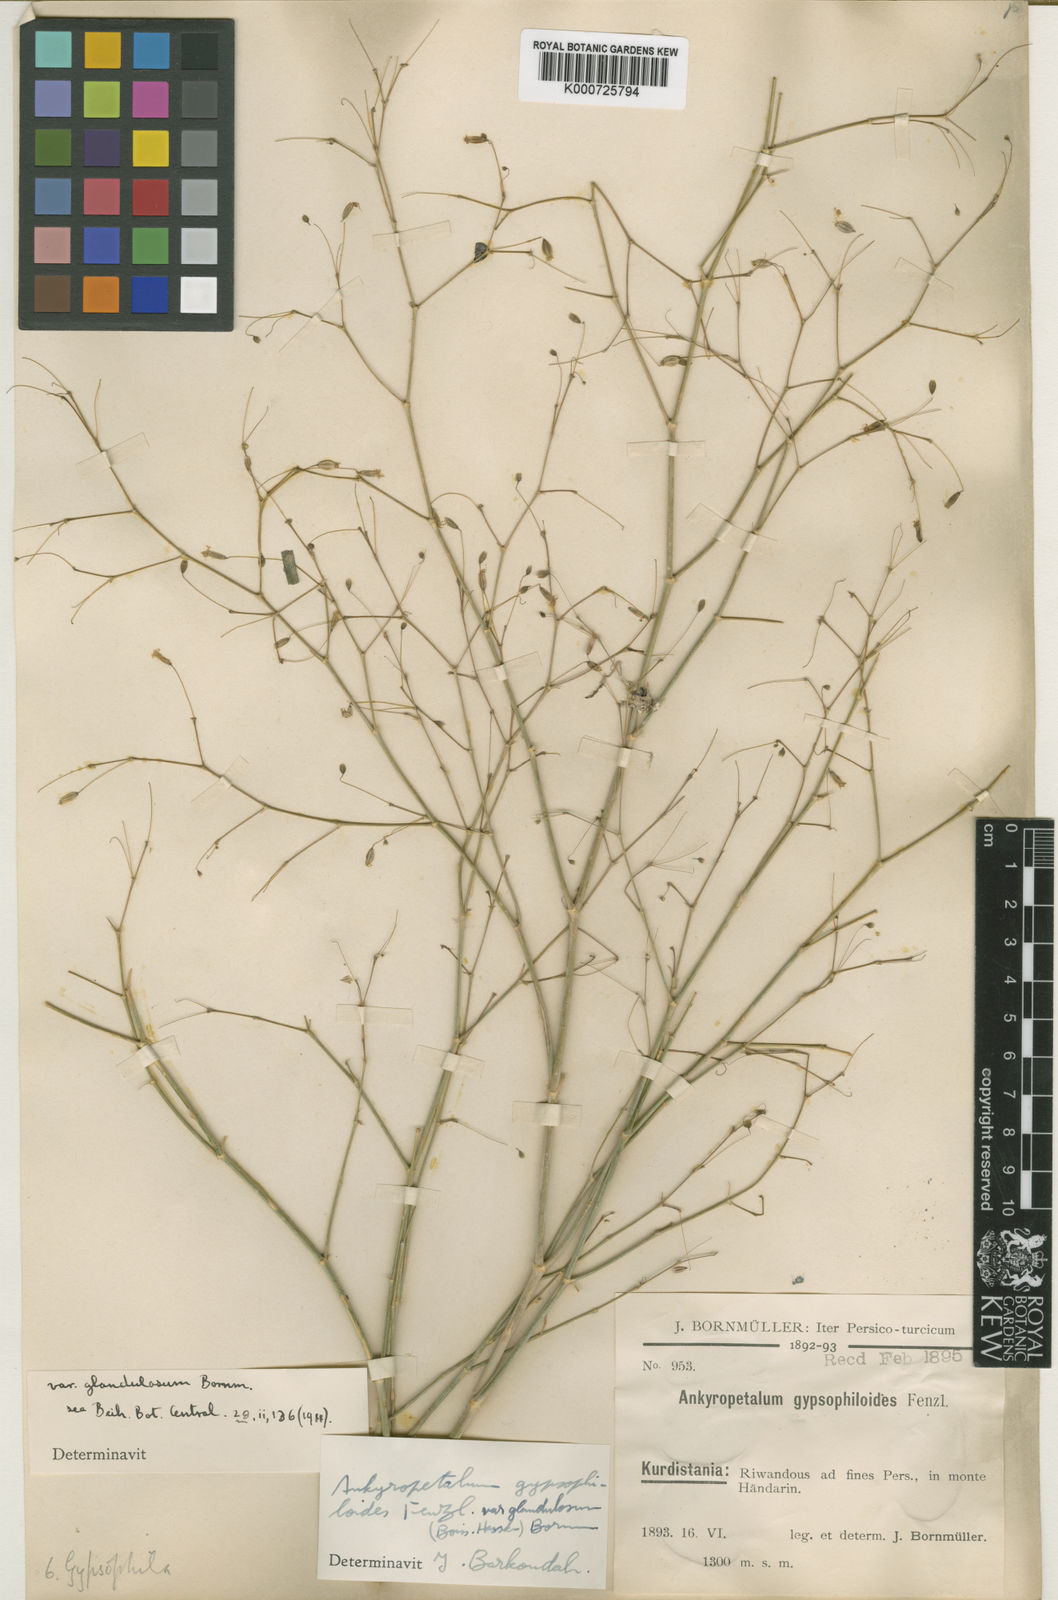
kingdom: Plantae
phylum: Tracheophyta
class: Magnoliopsida
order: Caryophyllales
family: Caryophyllaceae
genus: Mesostemma
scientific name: Mesostemma gypsophiloides
